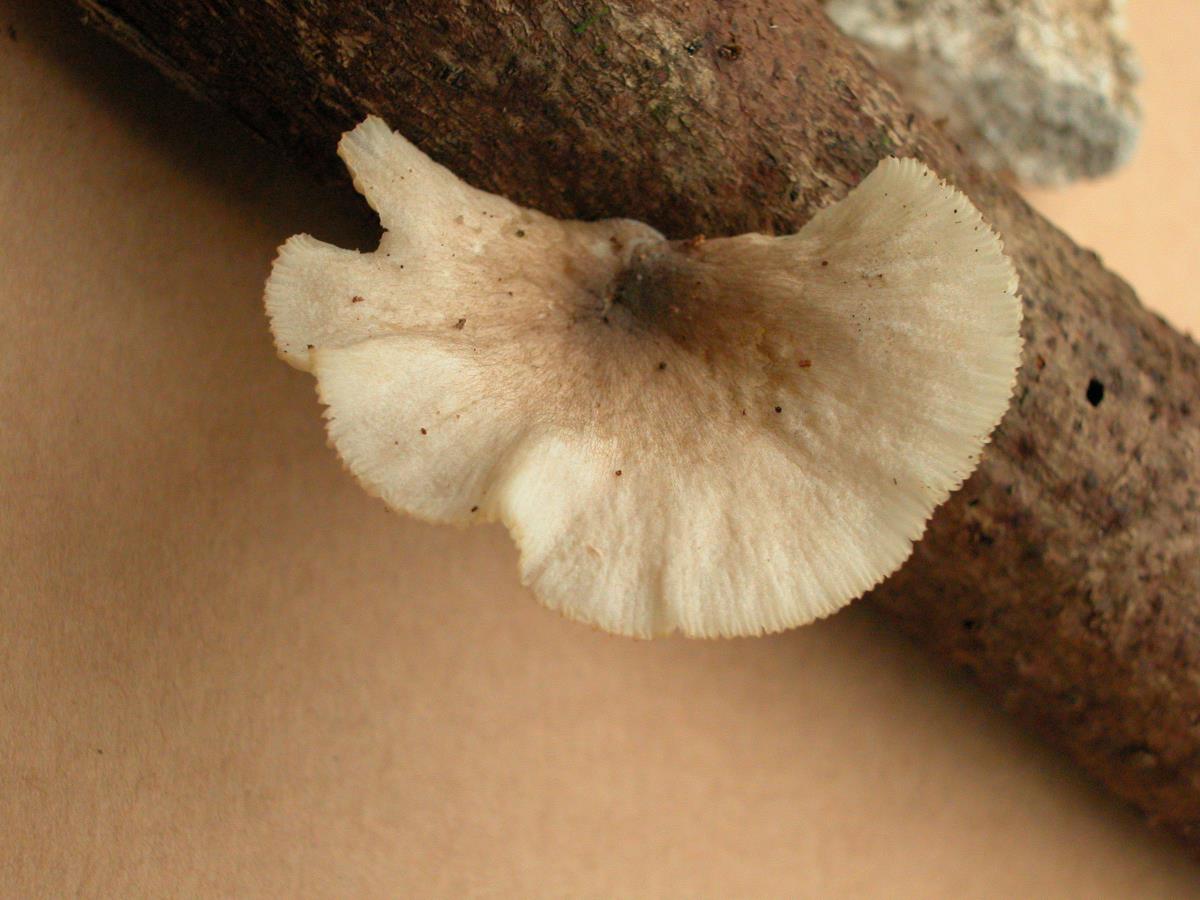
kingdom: Fungi
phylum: Basidiomycota
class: Agaricomycetes
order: Agaricales
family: Pleurotaceae
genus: Pleurotus
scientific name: Pleurotus djamor
